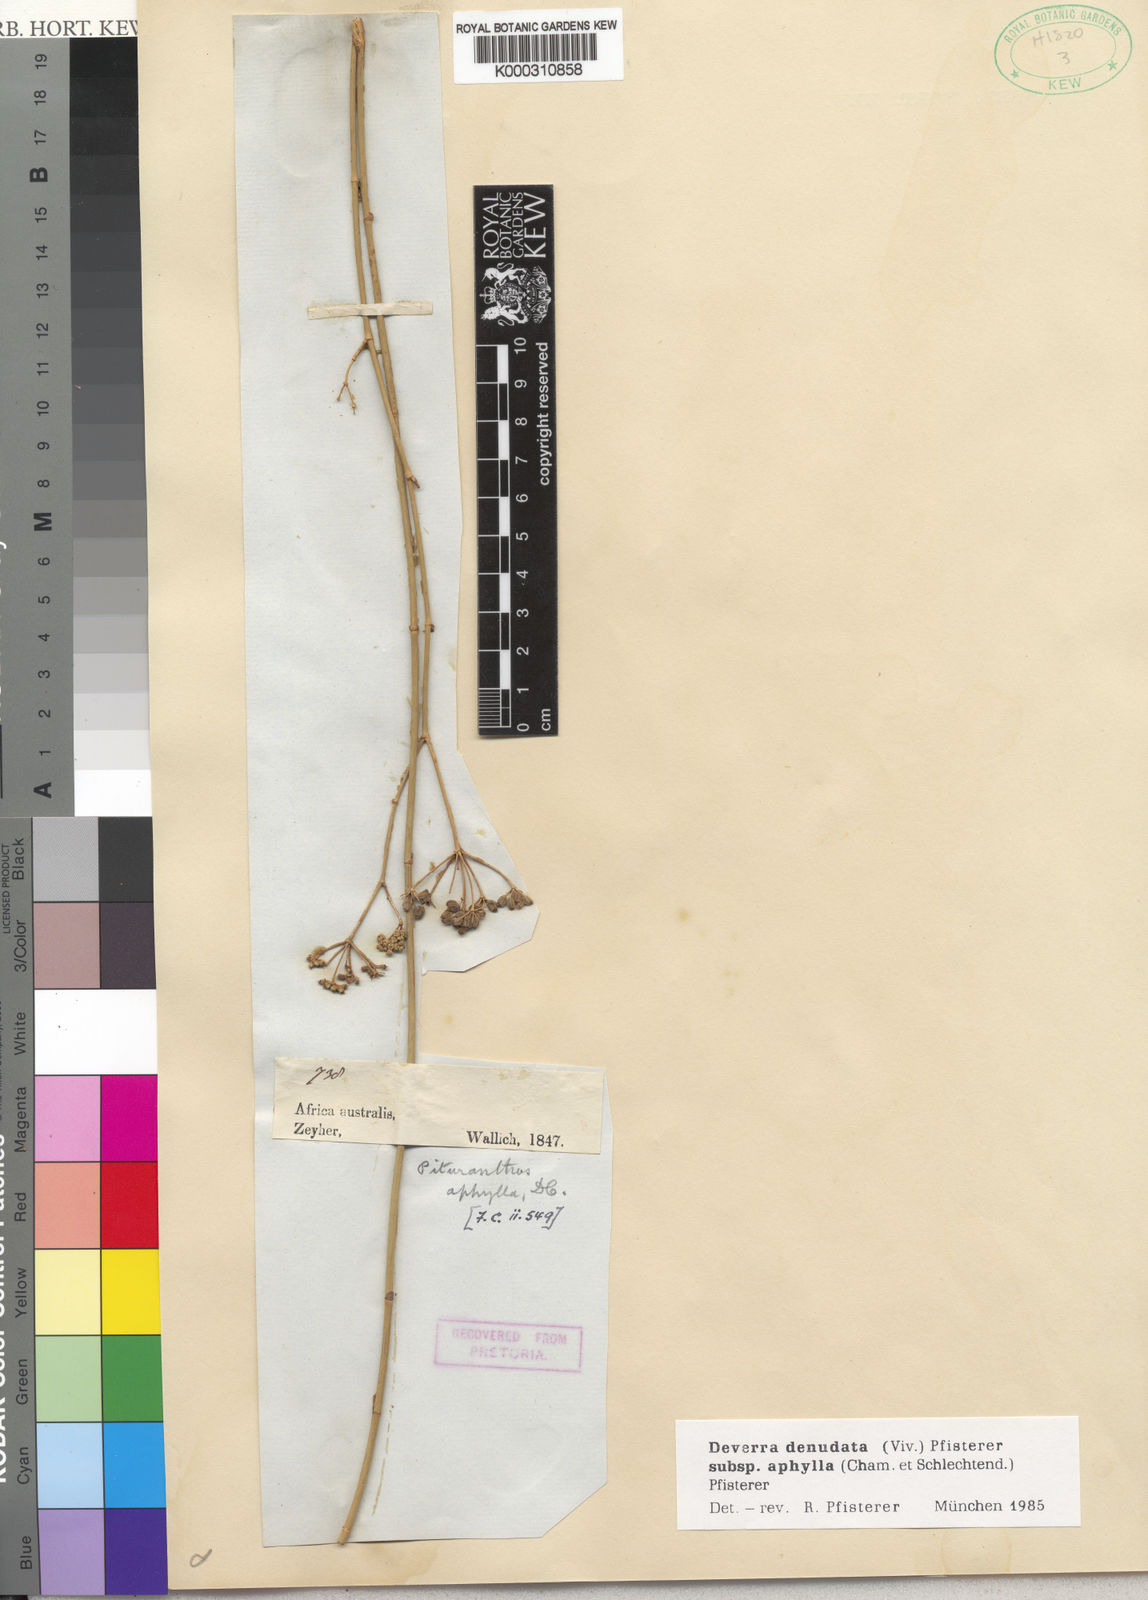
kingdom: Plantae
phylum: Tracheophyta
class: Magnoliopsida
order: Apiales
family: Apiaceae
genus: Deverra
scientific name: Deverra
